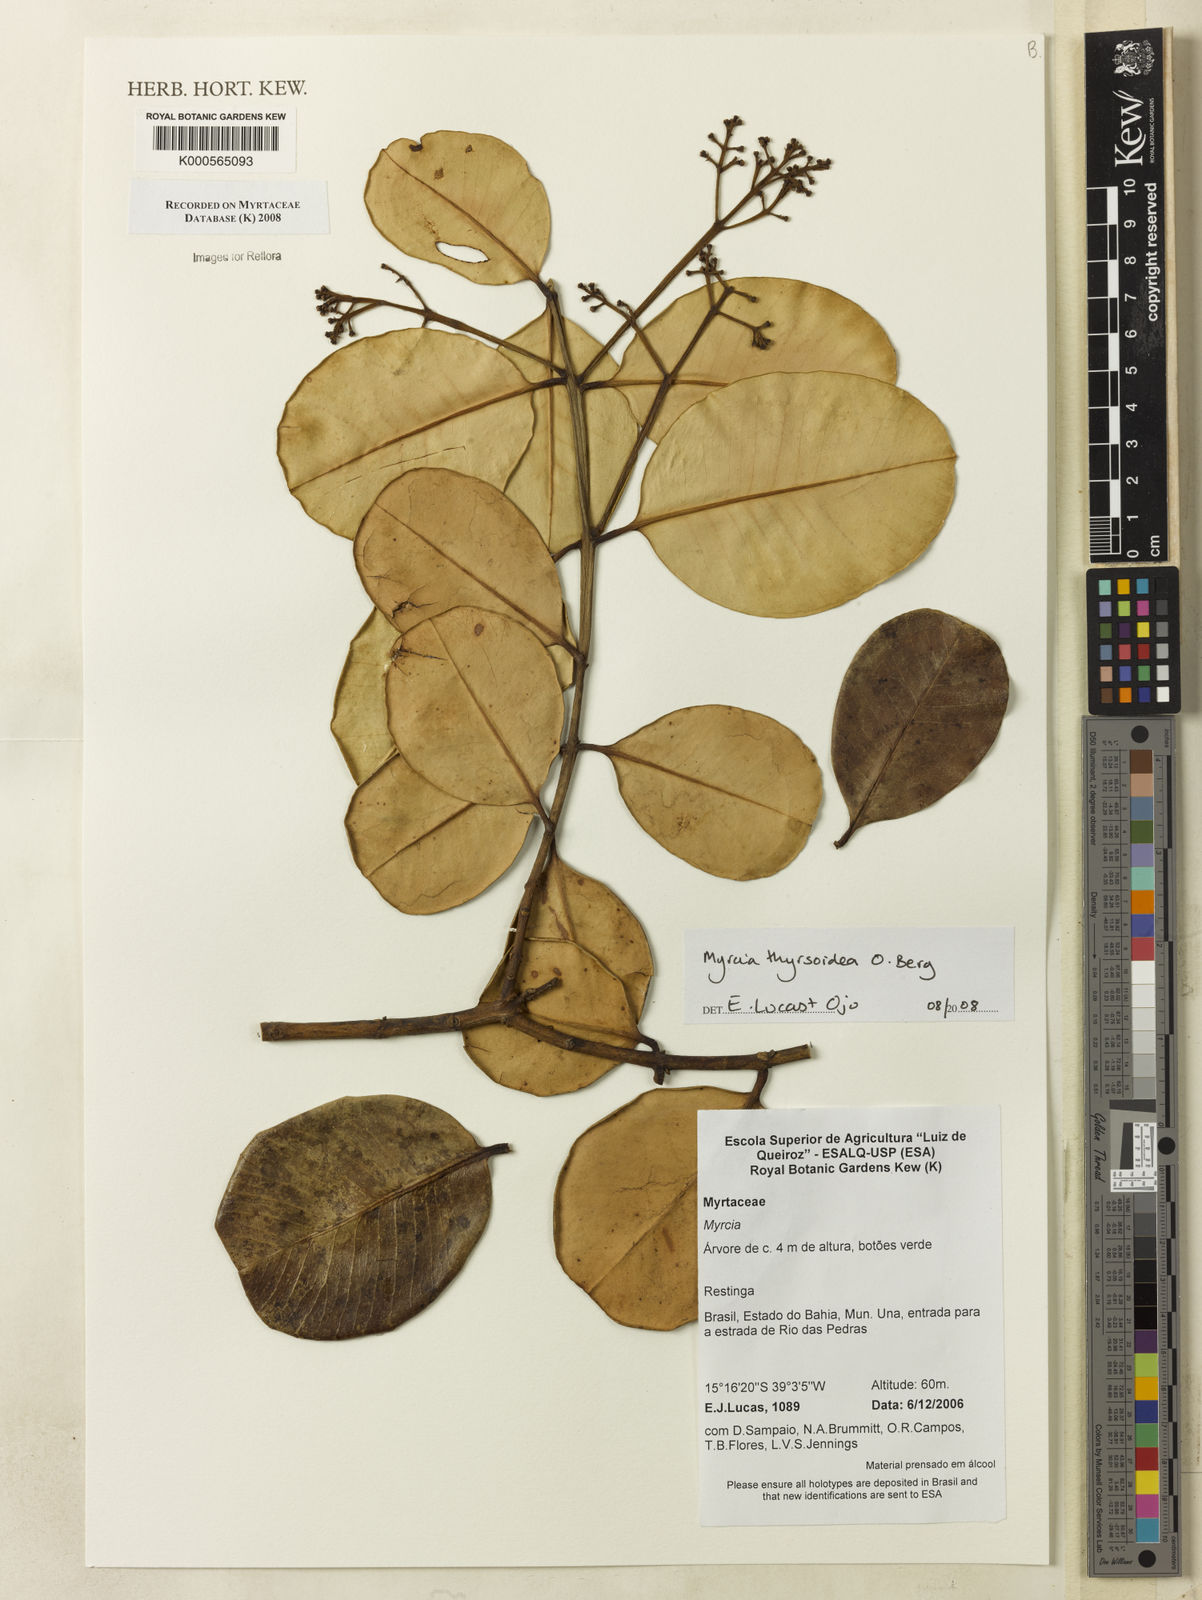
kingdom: Plantae
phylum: Tracheophyta
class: Magnoliopsida
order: Myrtales
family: Myrtaceae
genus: Myrcia
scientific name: Myrcia thyrsoidea
